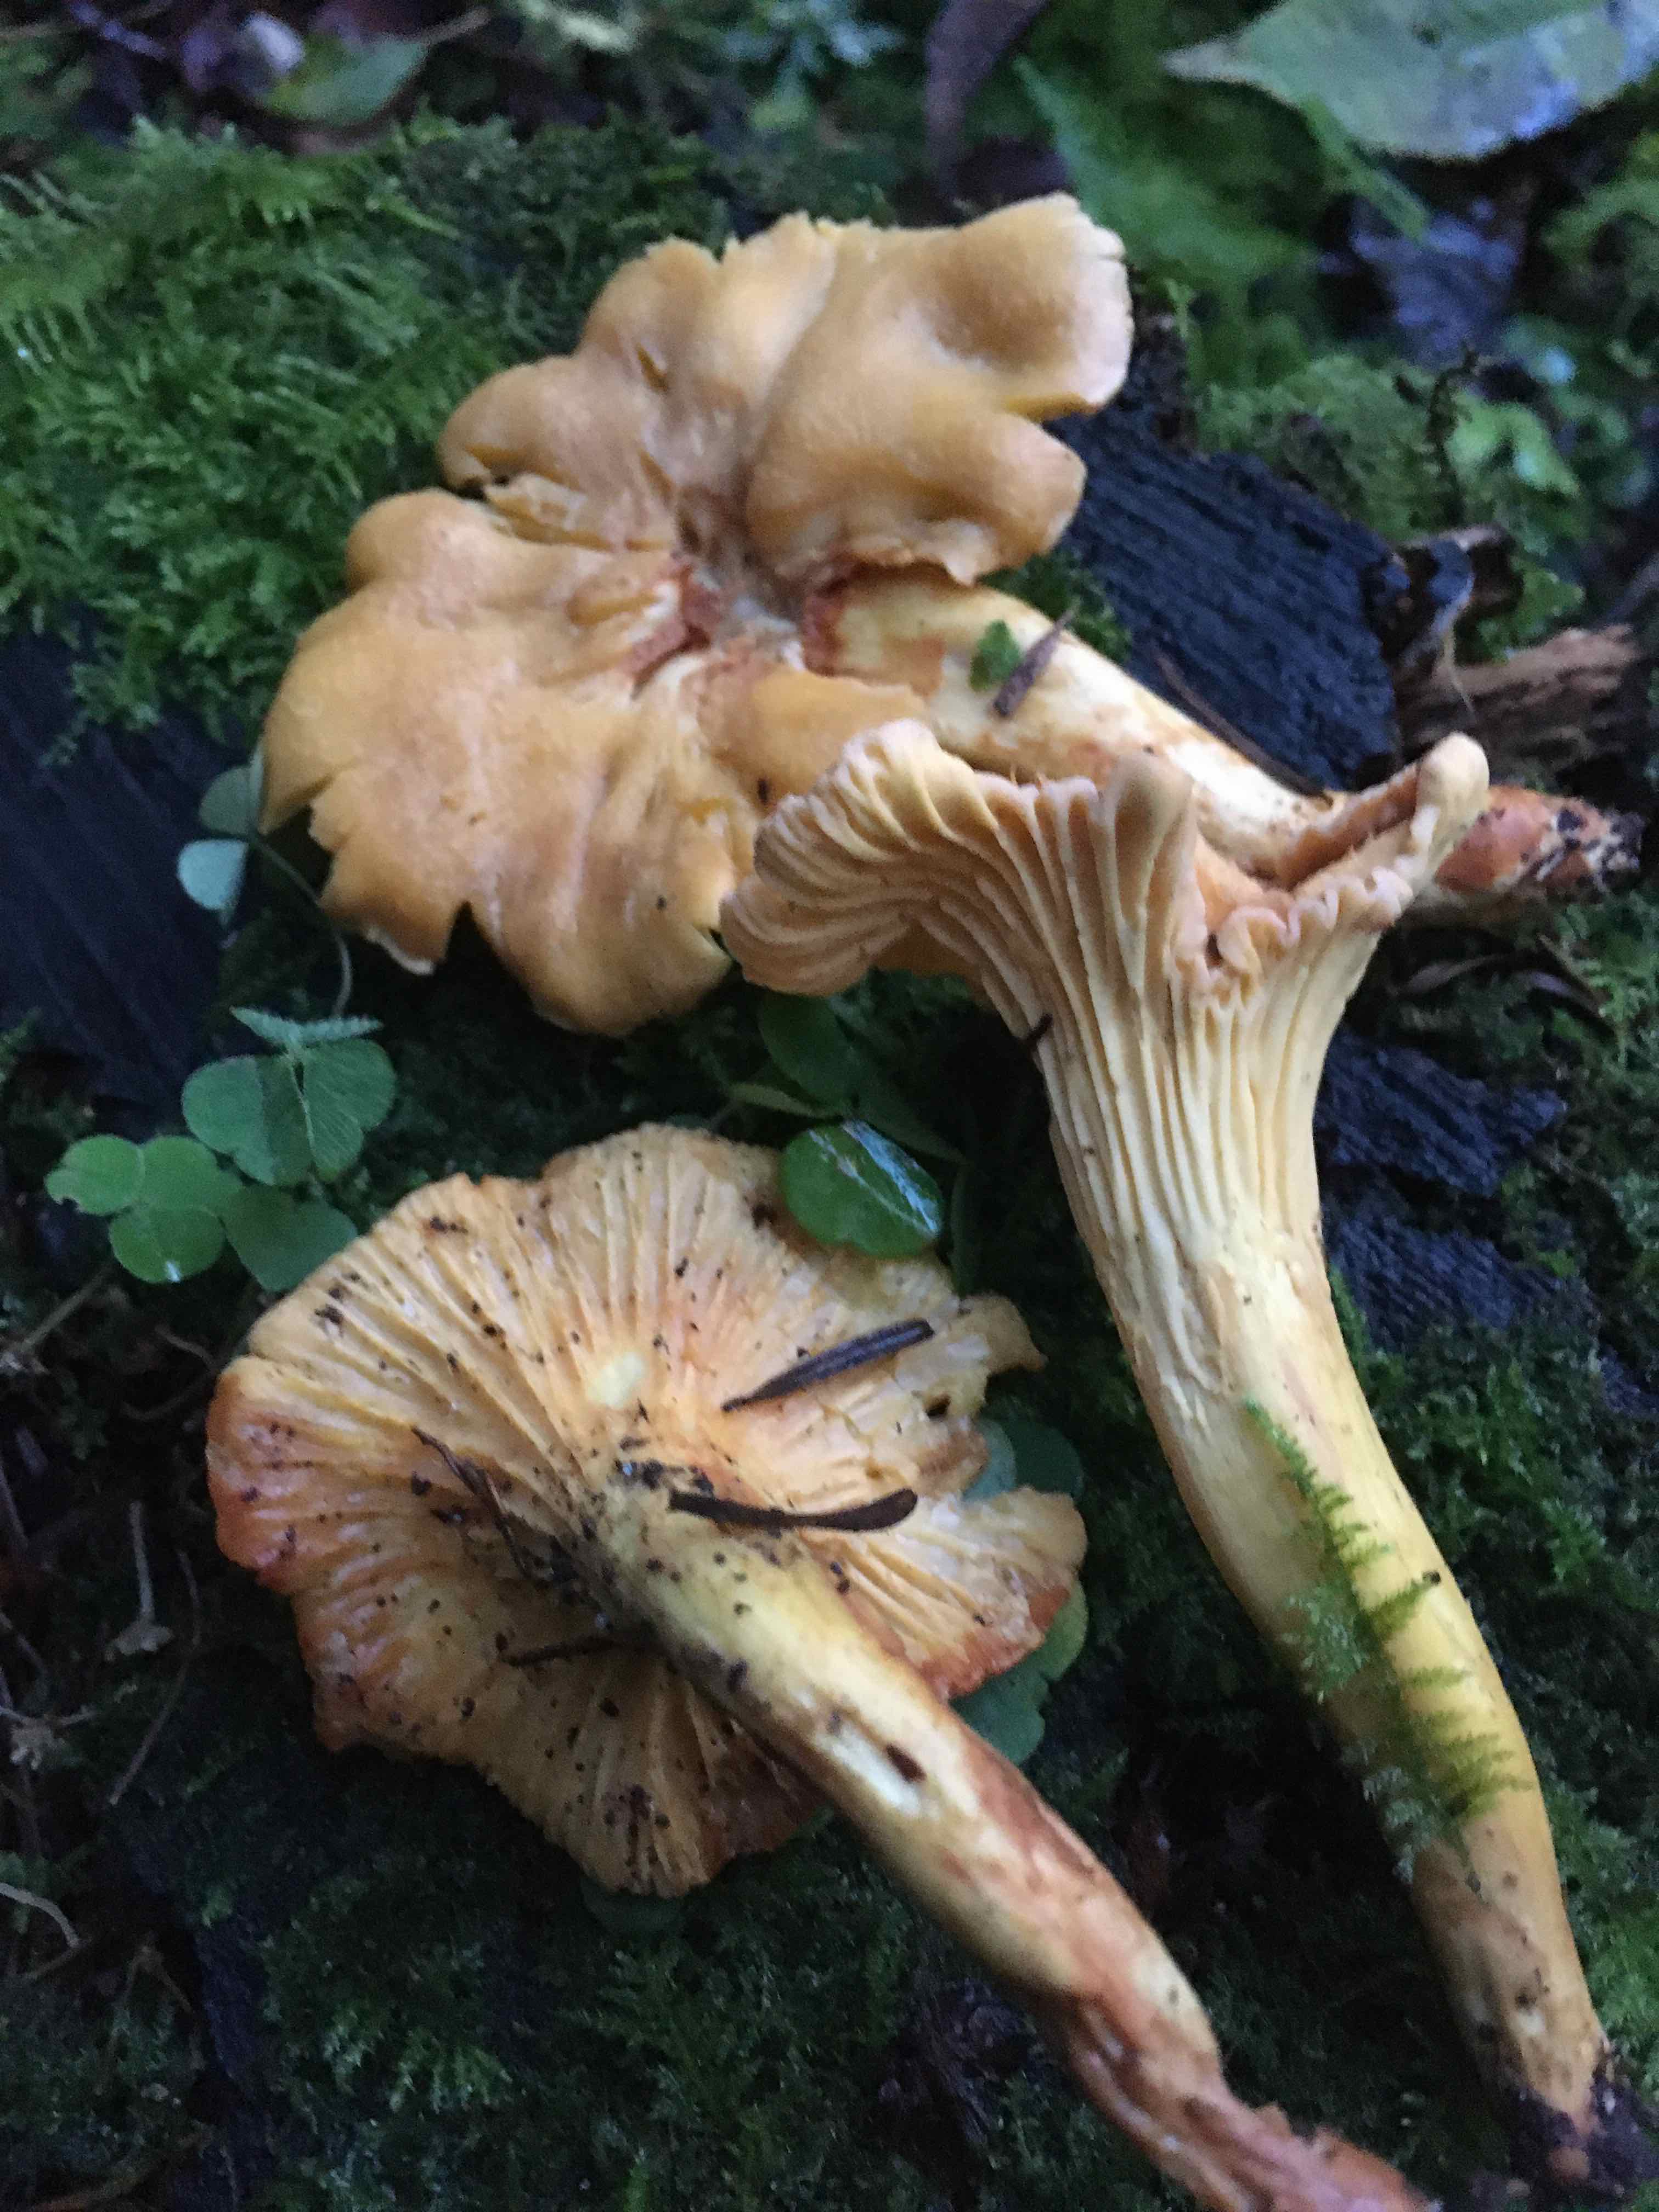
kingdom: Fungi
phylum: Basidiomycota
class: Agaricomycetes
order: Cantharellales
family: Hydnaceae
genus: Cantharellus
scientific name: Cantharellus cibarius
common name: almindelig kantarel
